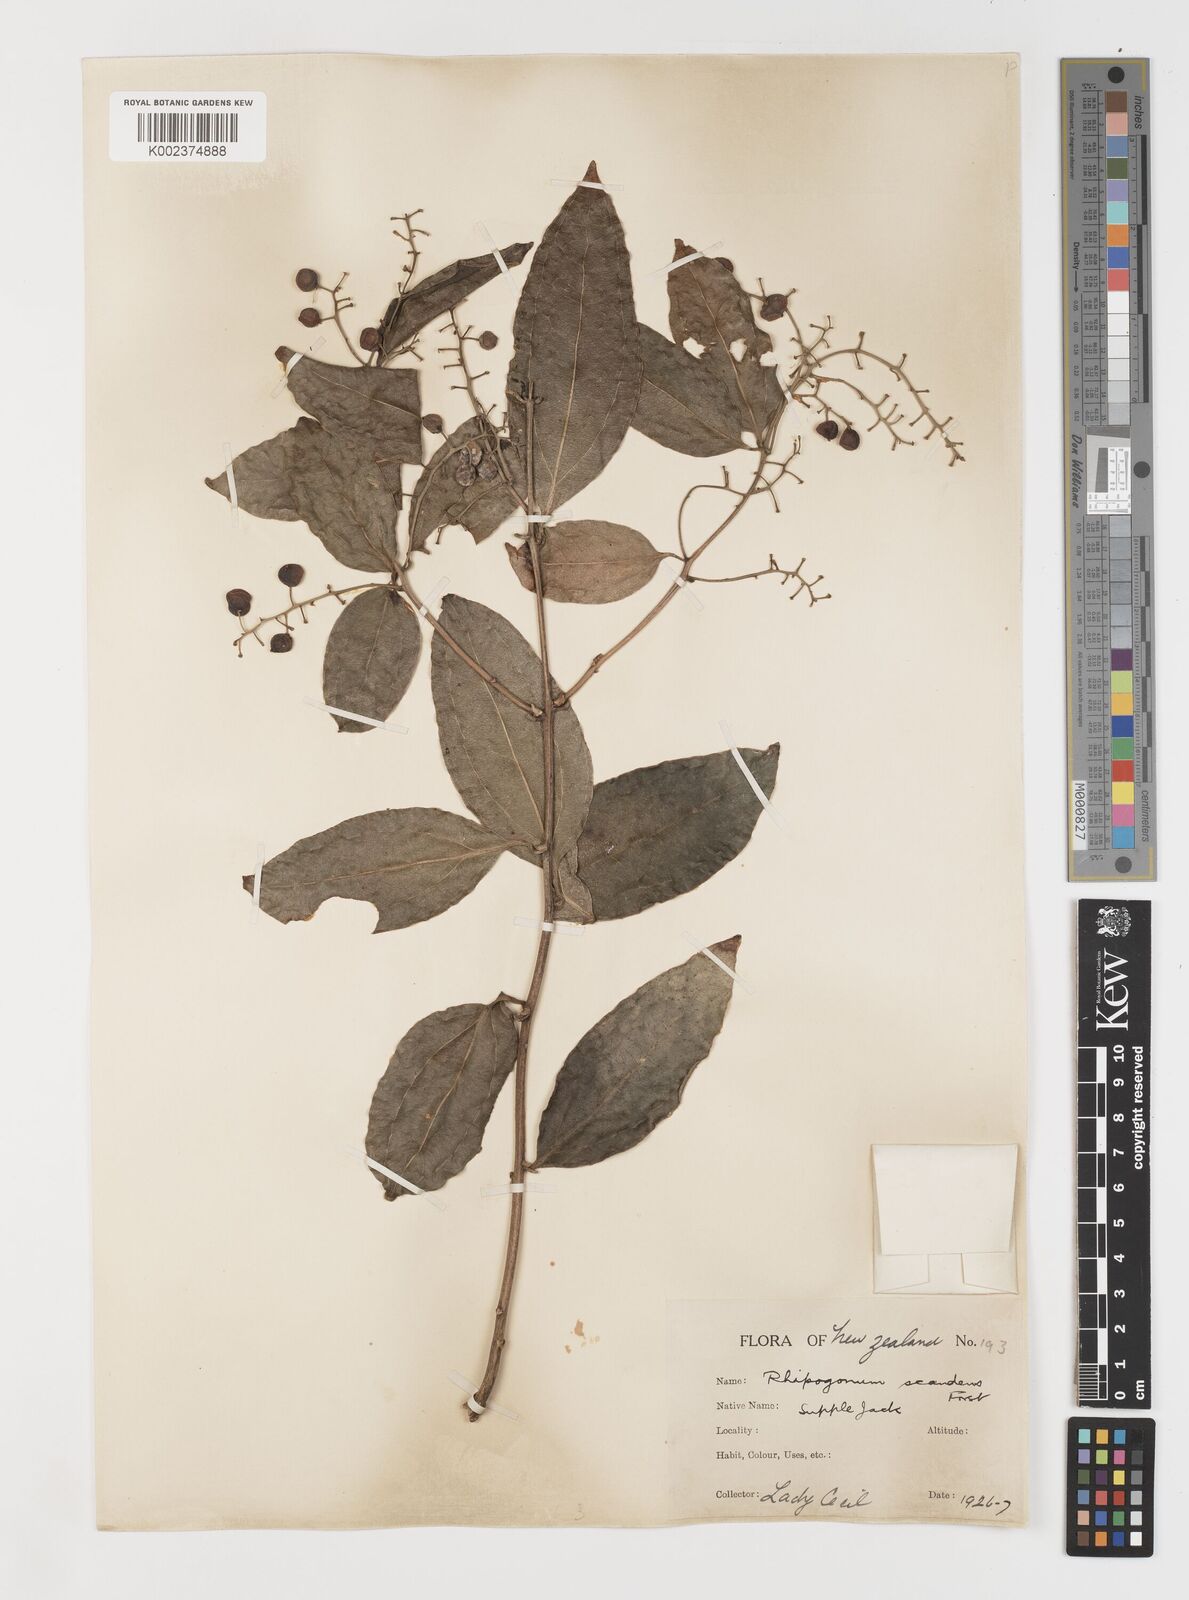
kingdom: Plantae
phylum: Tracheophyta
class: Liliopsida
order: Liliales
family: Ripogonaceae
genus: Ripogonum
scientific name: Ripogonum scandens
